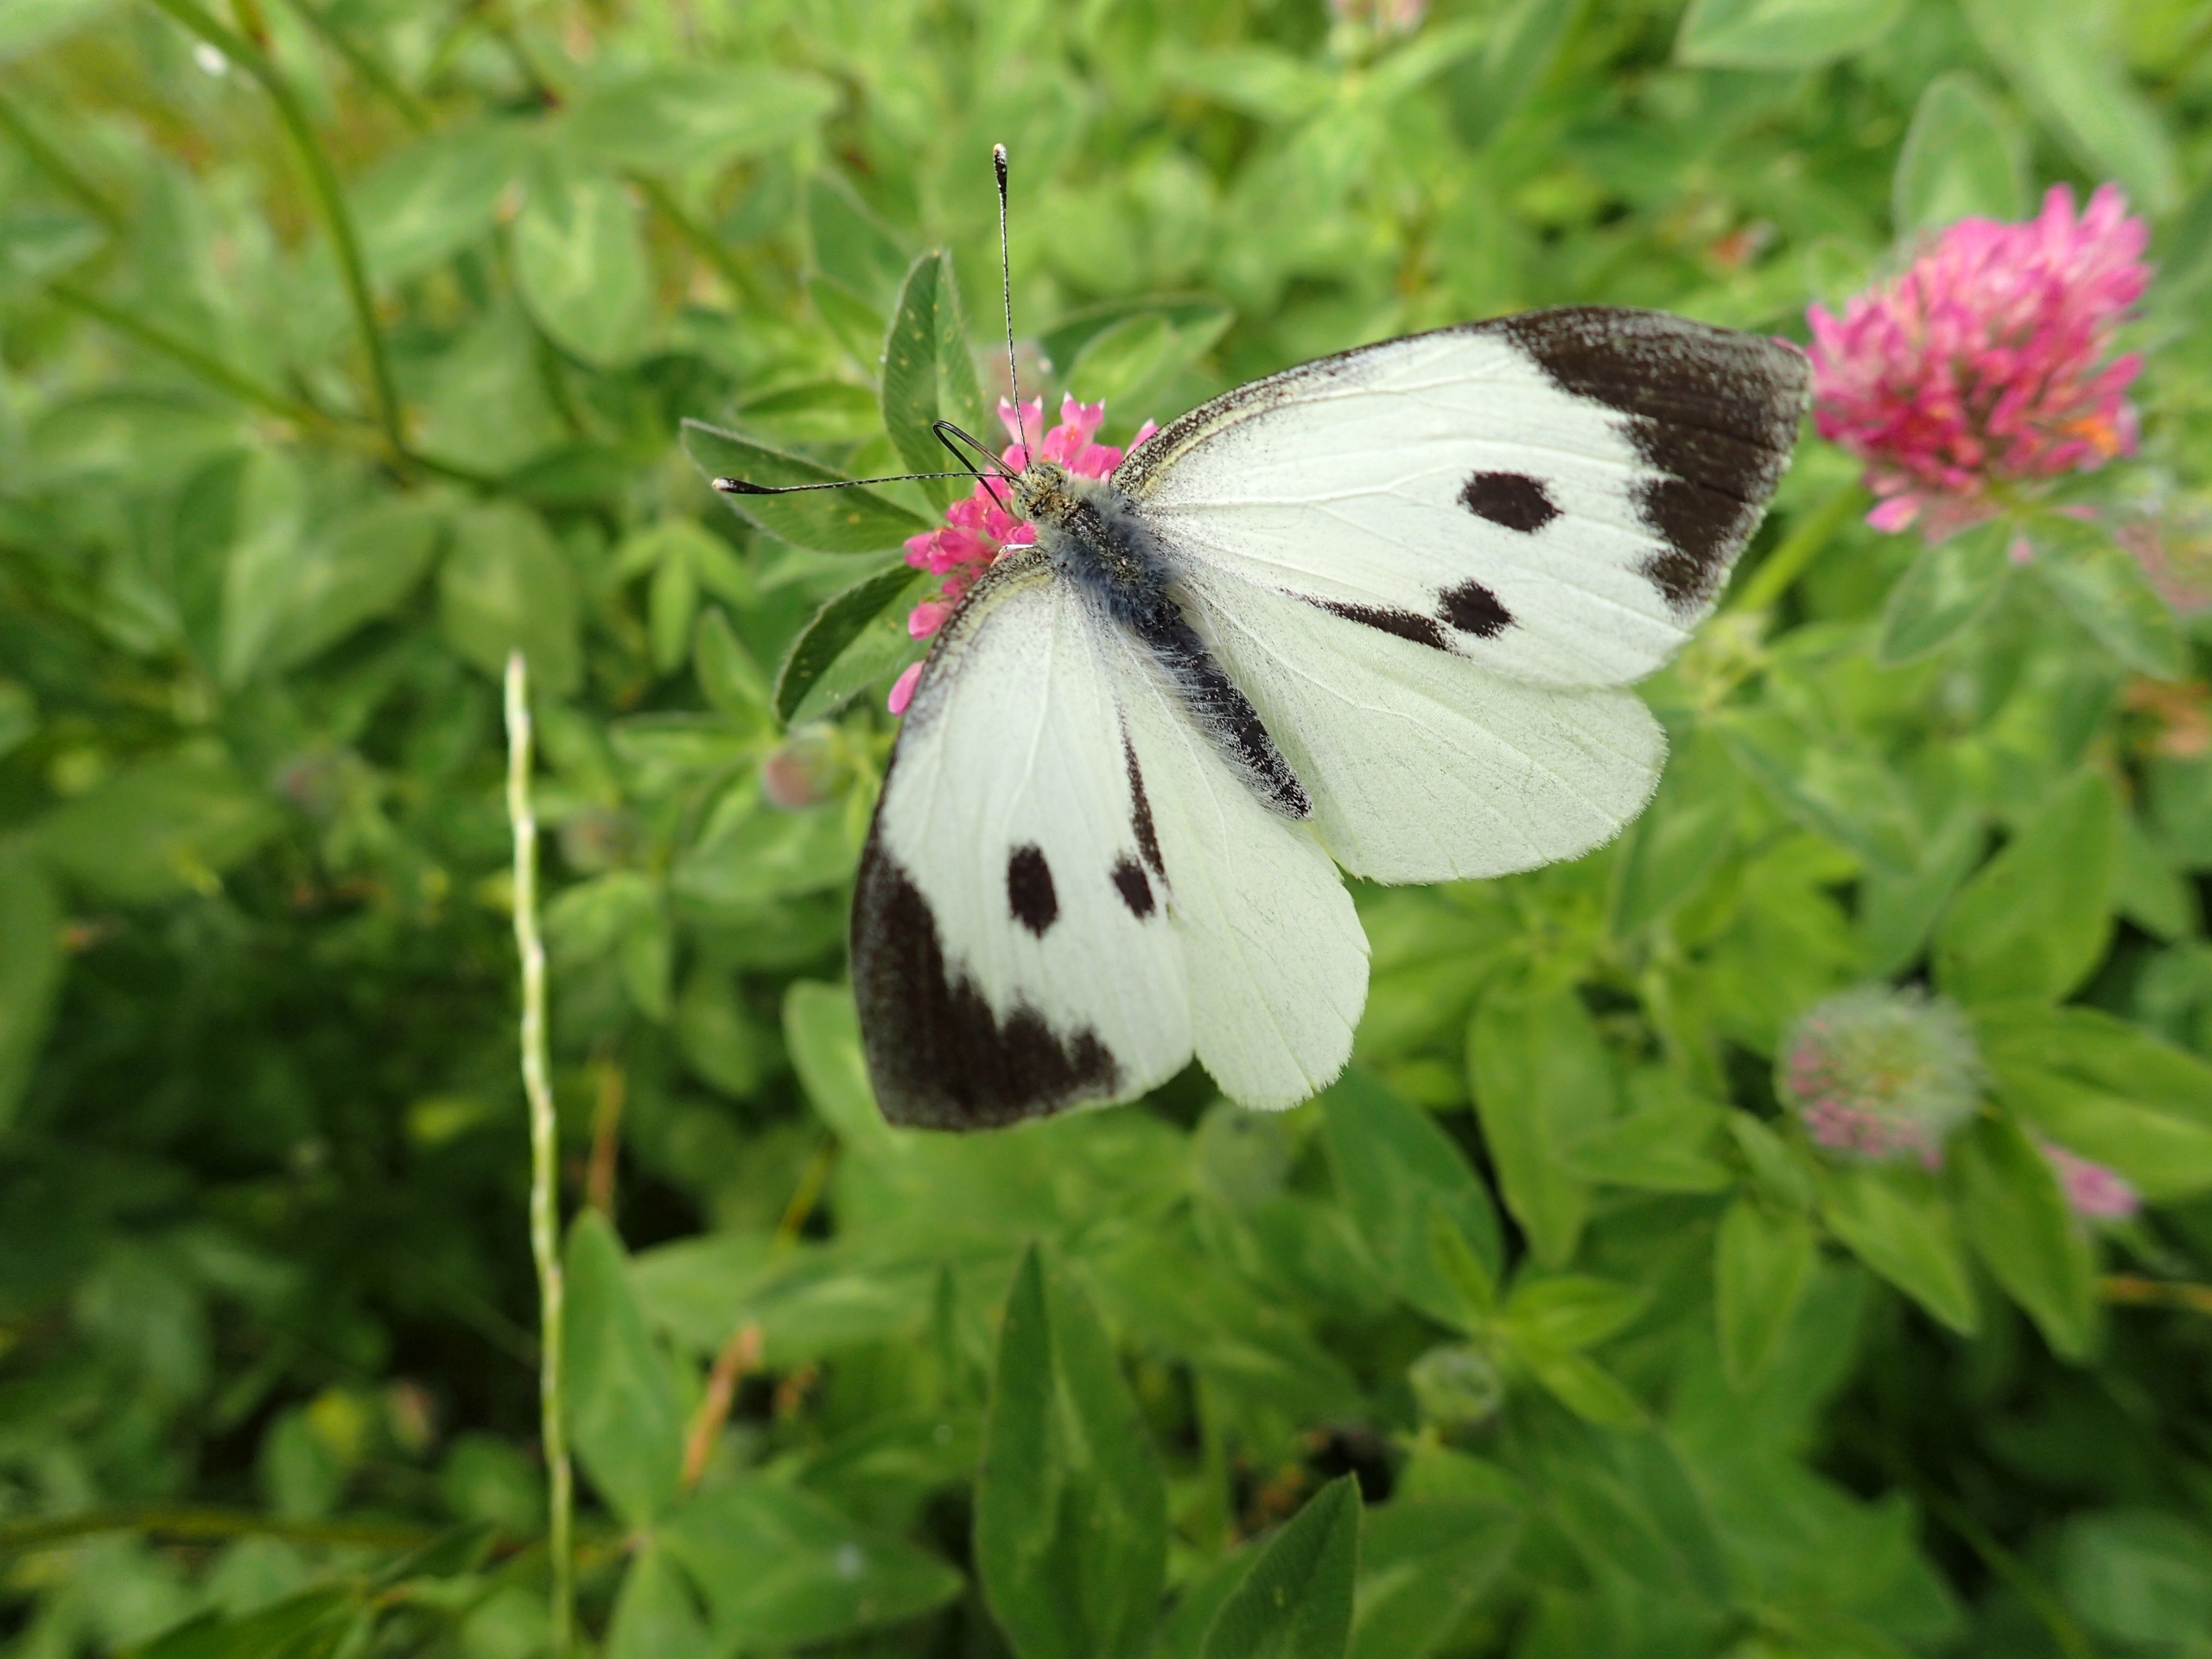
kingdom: Animalia
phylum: Arthropoda
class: Insecta
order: Lepidoptera
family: Pieridae
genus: Pieris
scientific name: Pieris brassicae
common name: Stor kålsommerfugl
